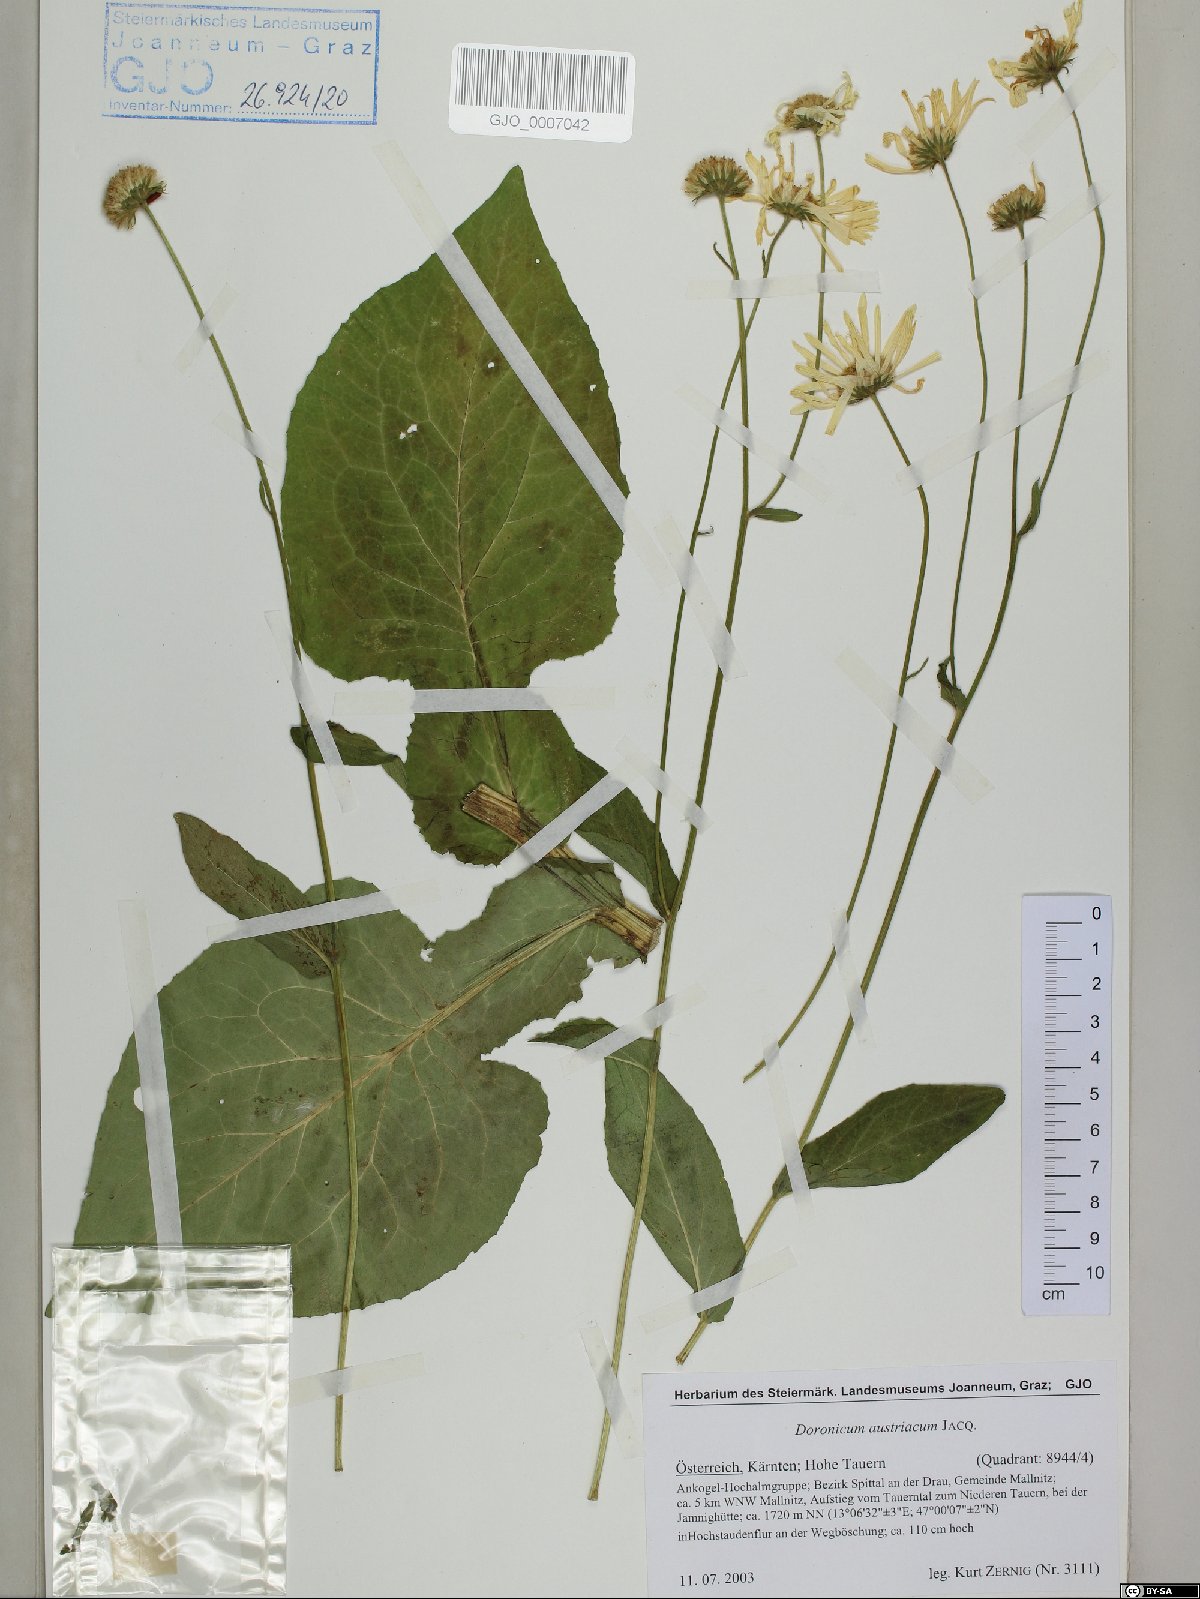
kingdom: Plantae
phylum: Tracheophyta
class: Magnoliopsida
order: Asterales
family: Asteraceae
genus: Doronicum
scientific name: Doronicum austriacum
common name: Austrian leopard's-bane
